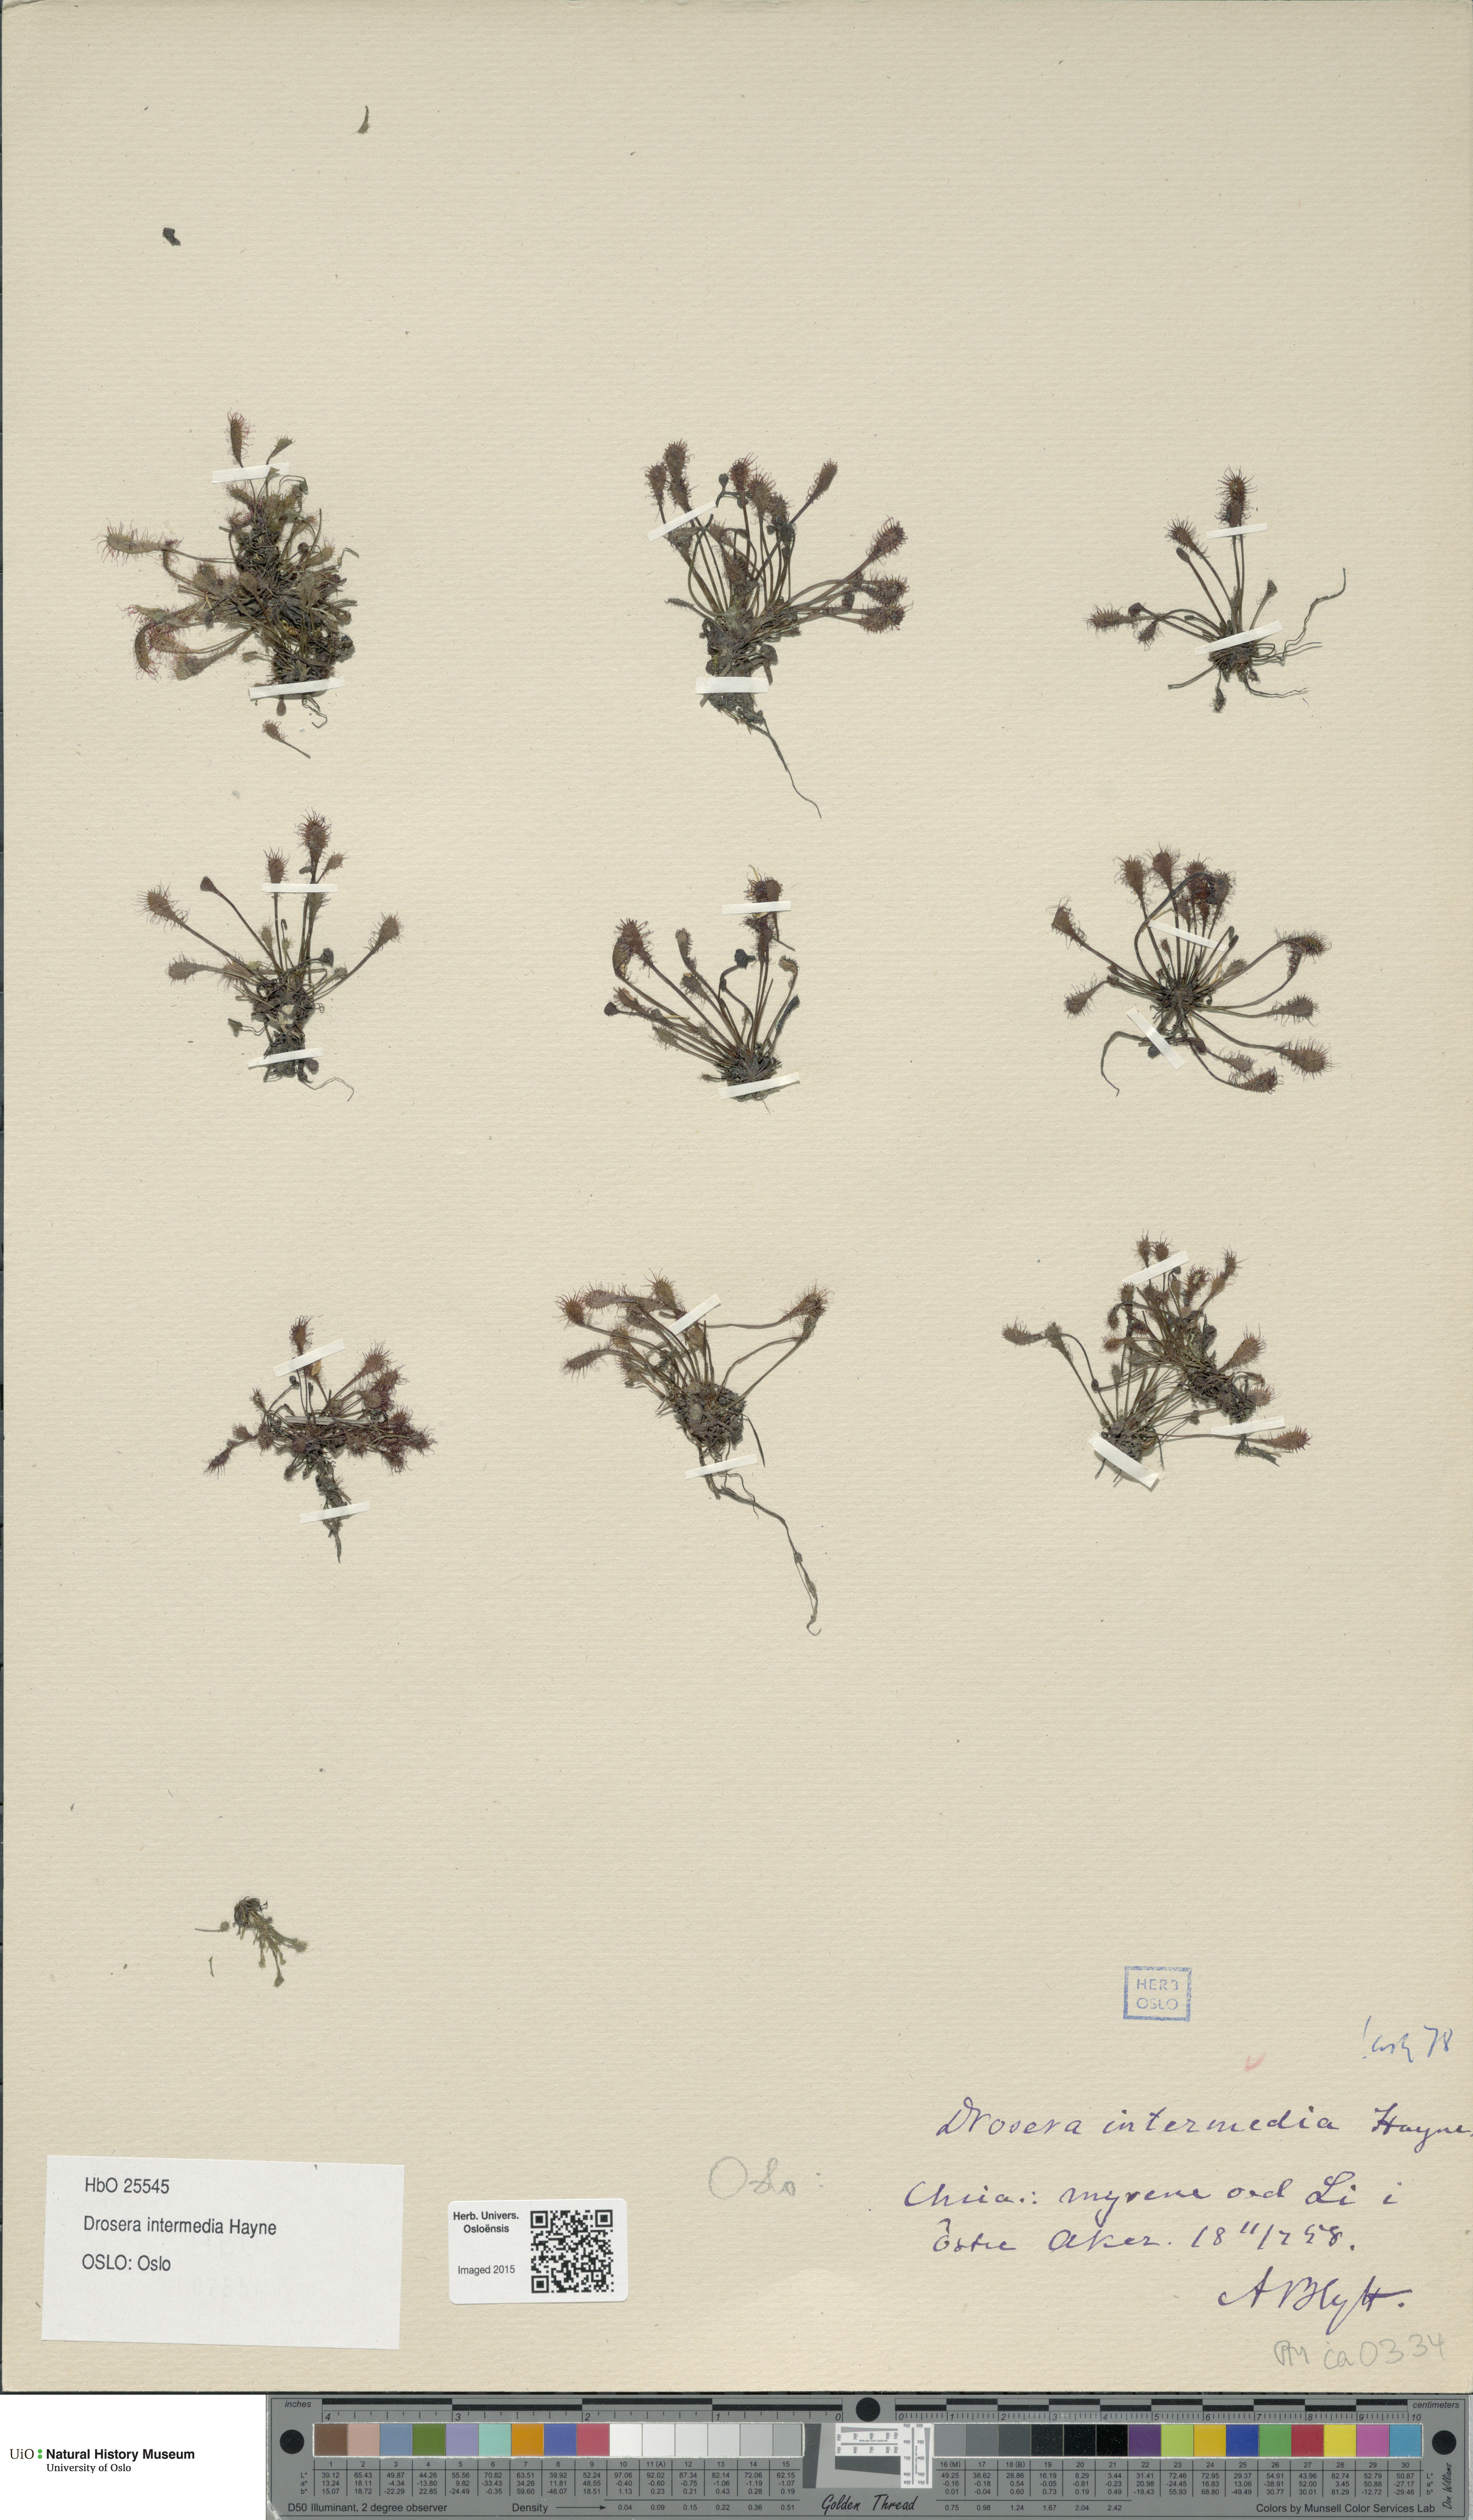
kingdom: Plantae
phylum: Tracheophyta
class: Magnoliopsida
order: Caryophyllales
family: Droseraceae
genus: Drosera
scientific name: Drosera intermedia
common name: Oblong-leaved sundew
